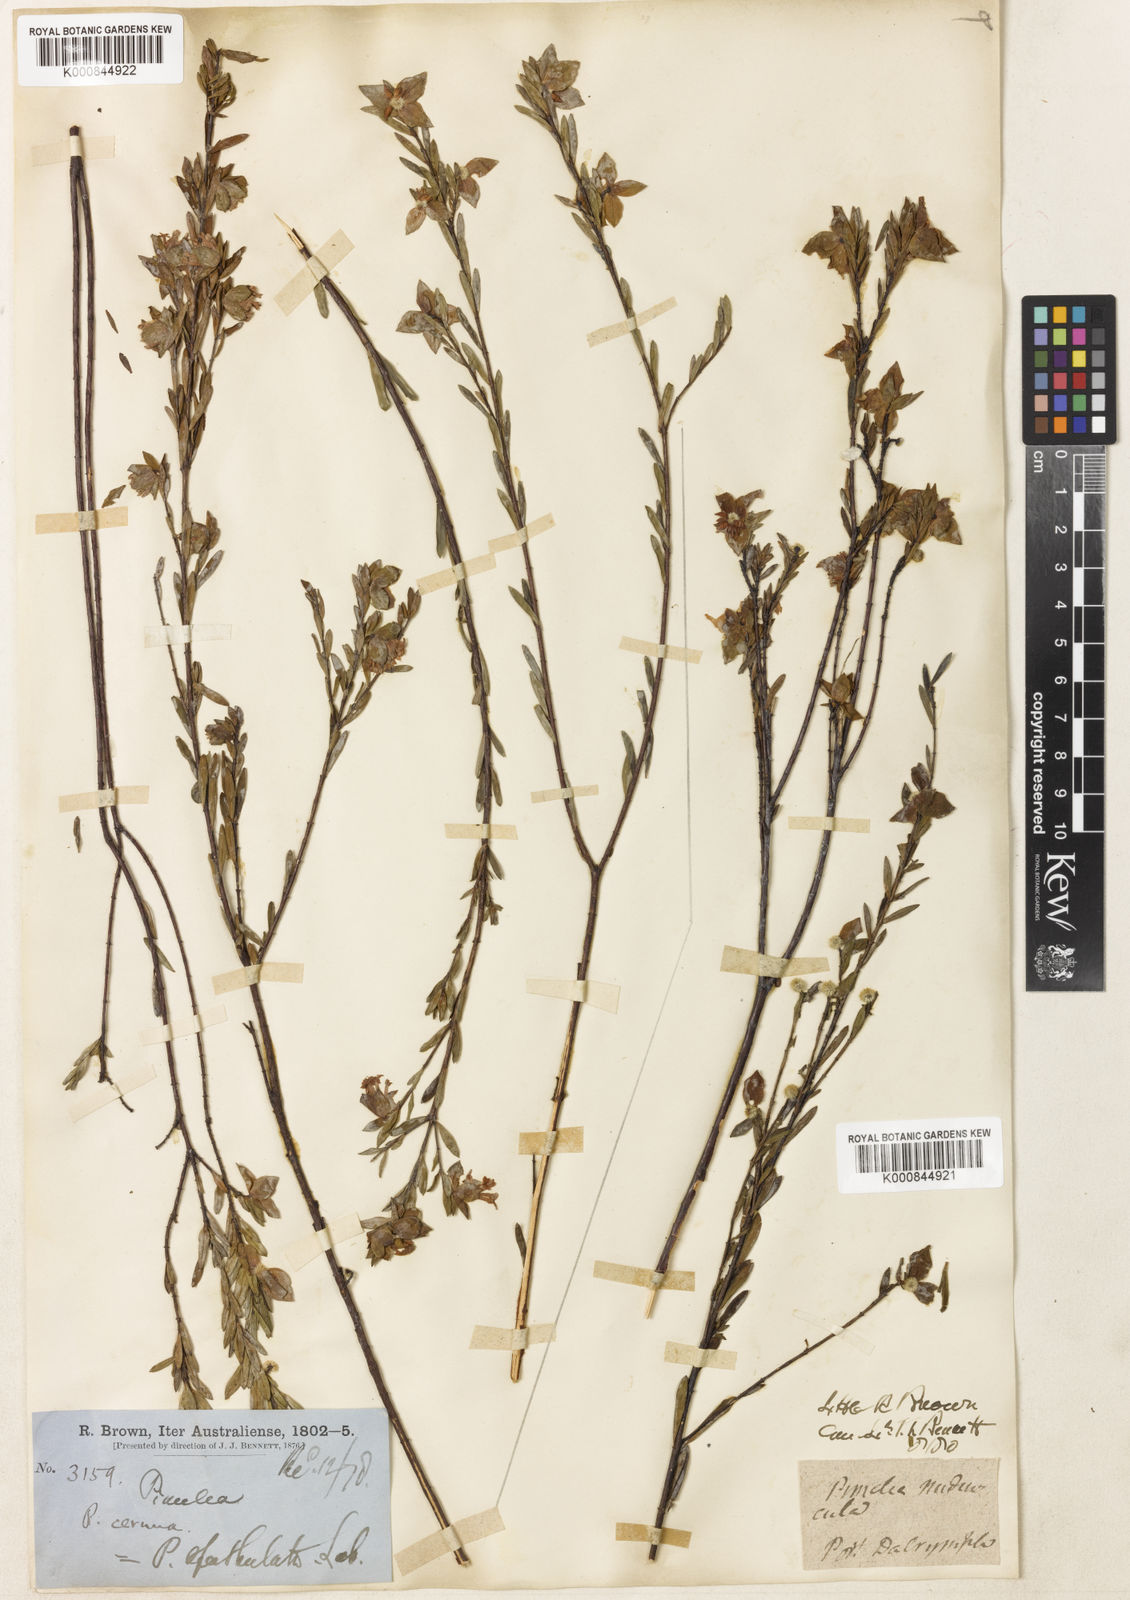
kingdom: Plantae
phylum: Tracheophyta
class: Magnoliopsida
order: Malvales
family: Thymelaeaceae
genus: Pimelea
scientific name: Pimelea linifolia
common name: Queen-of-the-bush
